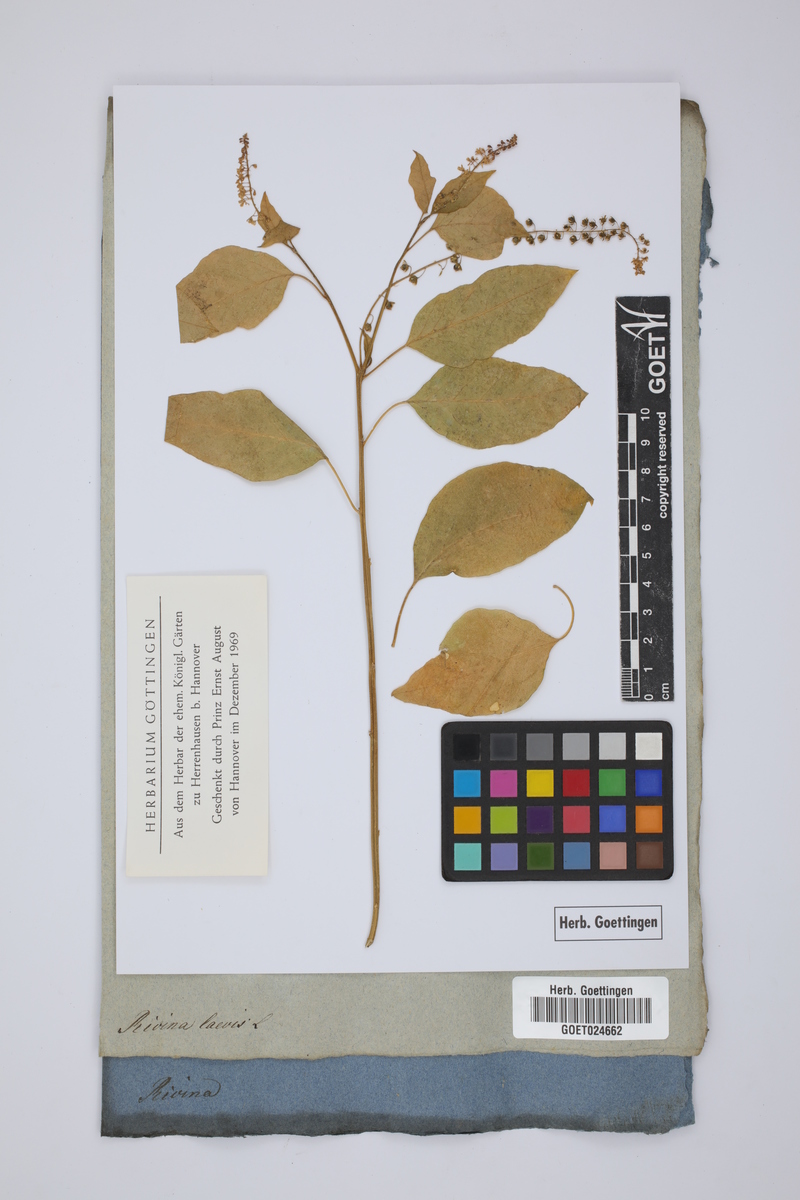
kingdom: Plantae
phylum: Tracheophyta
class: Magnoliopsida
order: Caryophyllales
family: Phytolaccaceae
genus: Rivina
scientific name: Rivina humilis
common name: Rougeplant
